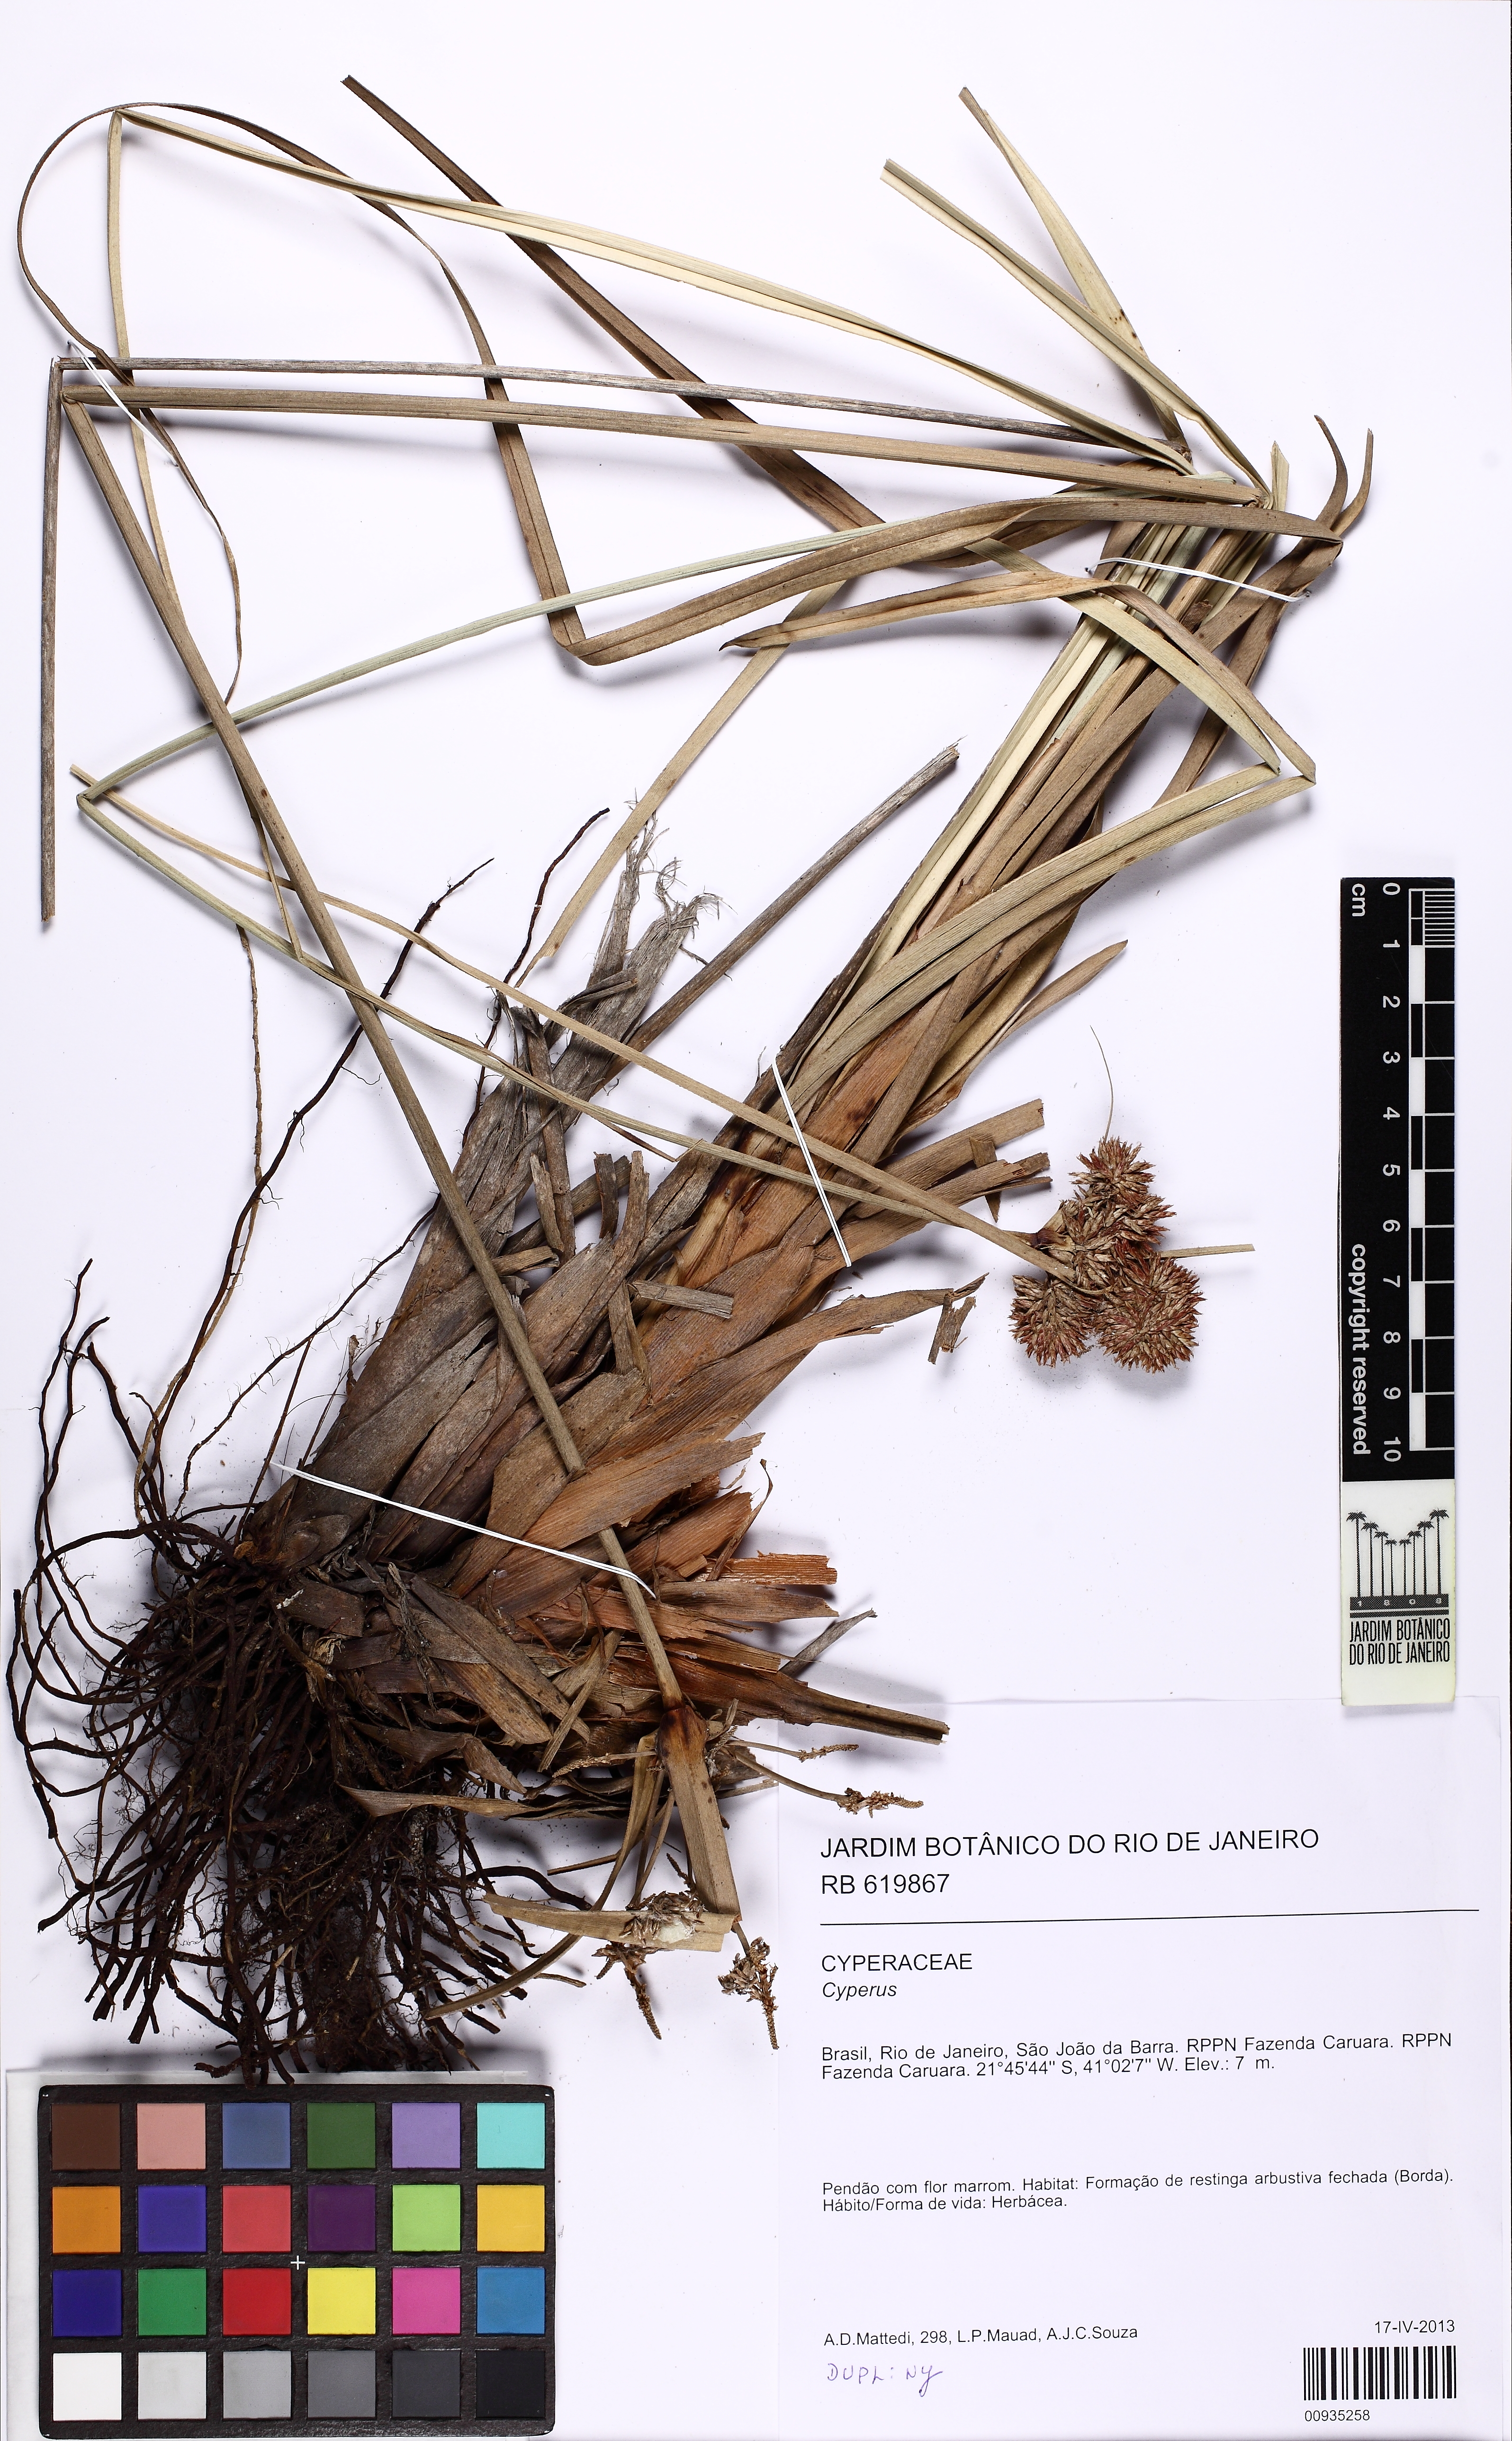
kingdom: Plantae
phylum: Tracheophyta
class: Liliopsida
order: Poales
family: Cyperaceae
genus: Cyperus
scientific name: Cyperus ligularis
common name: Swamp flat sedge
